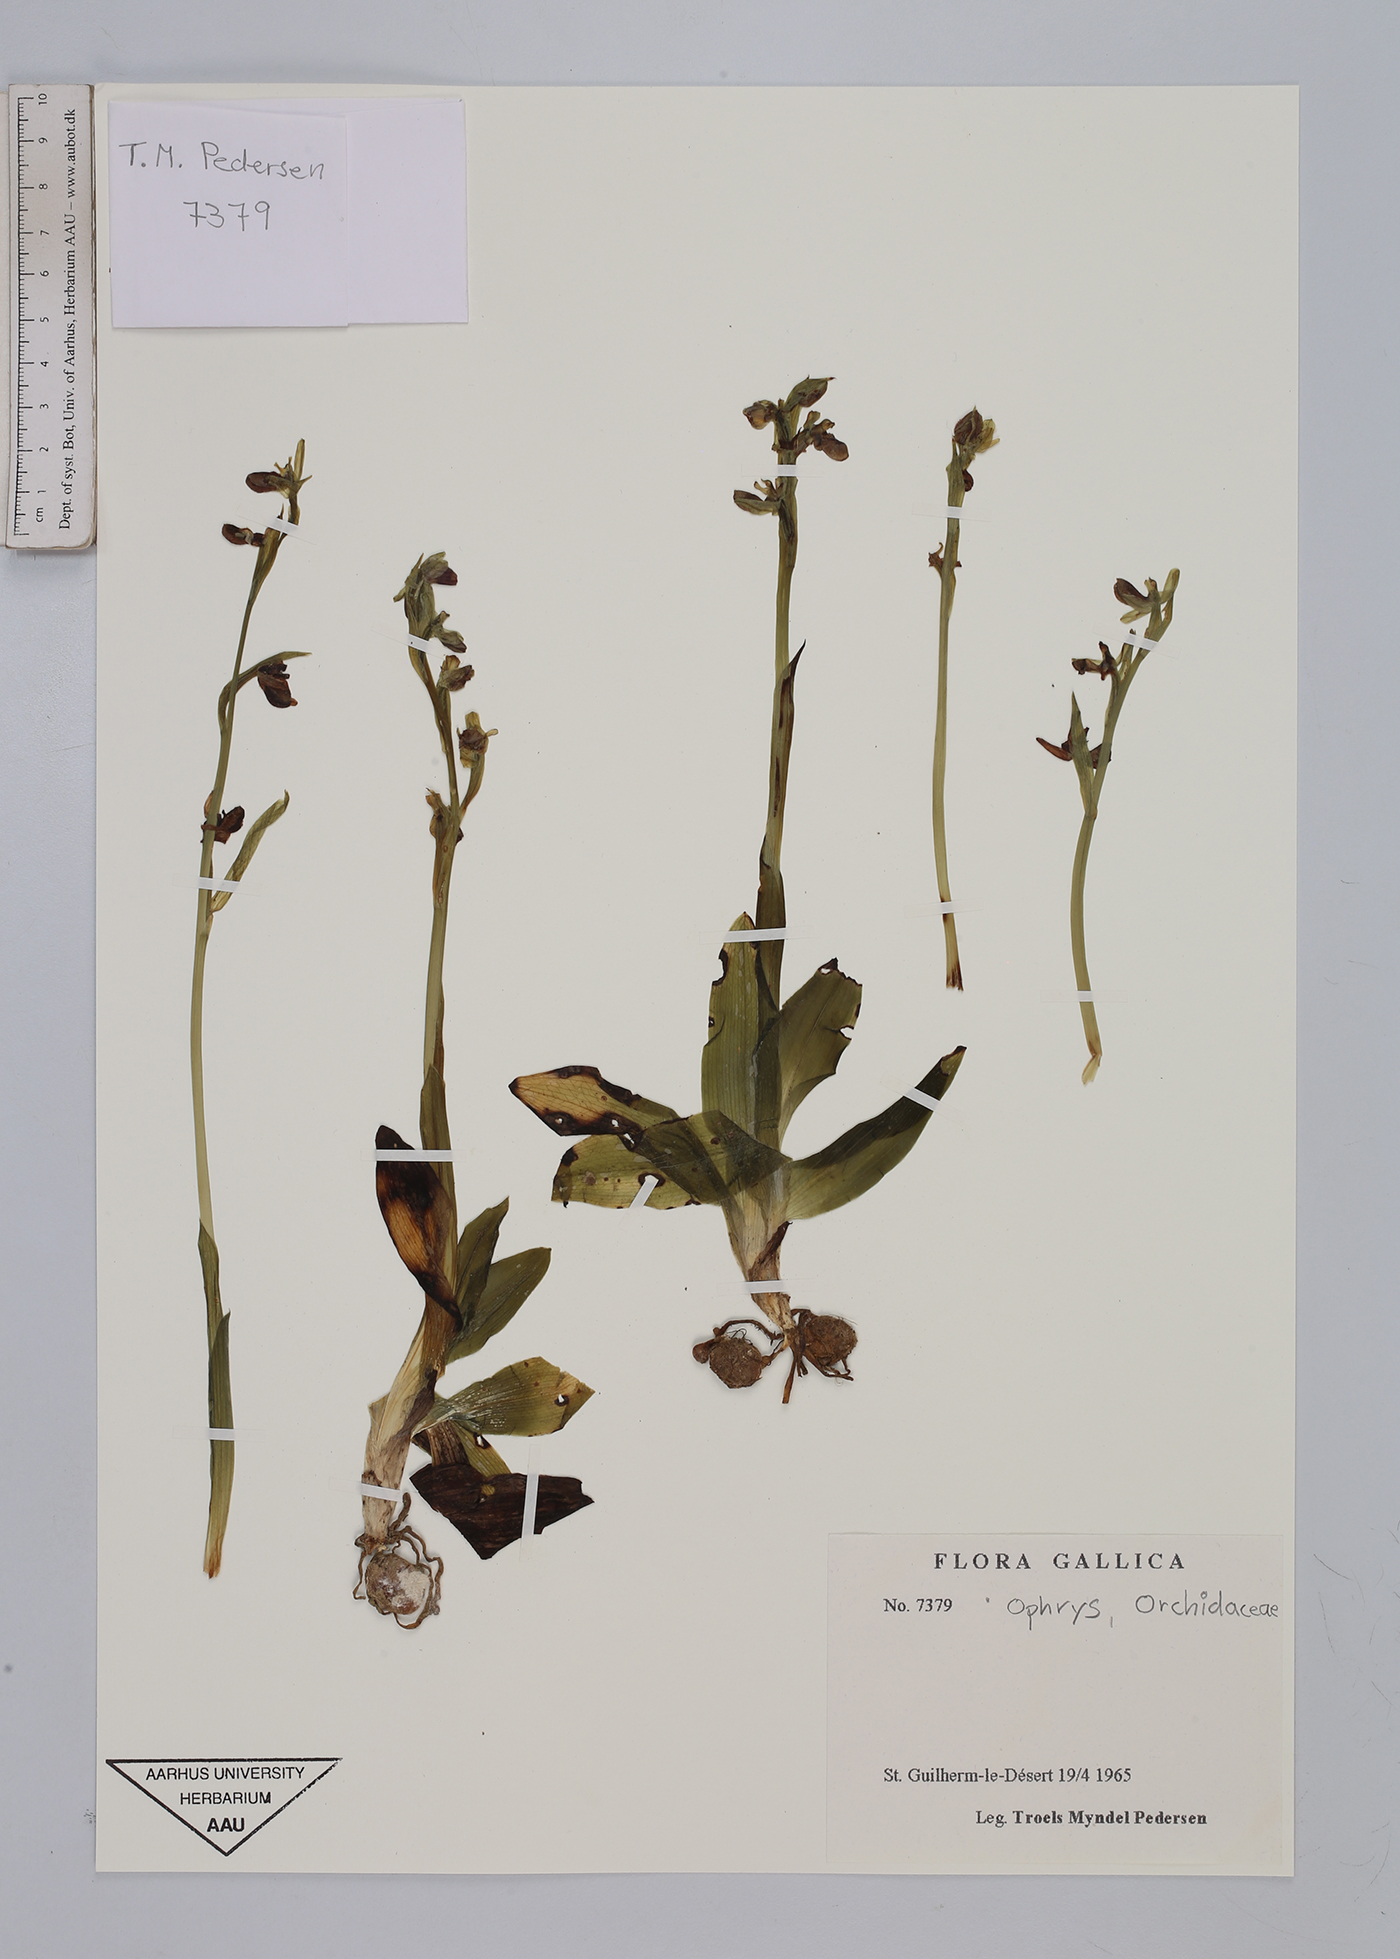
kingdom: Plantae
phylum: Tracheophyta
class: Liliopsida
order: Asparagales
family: Orchidaceae
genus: Ophrys
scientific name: Ophrys
